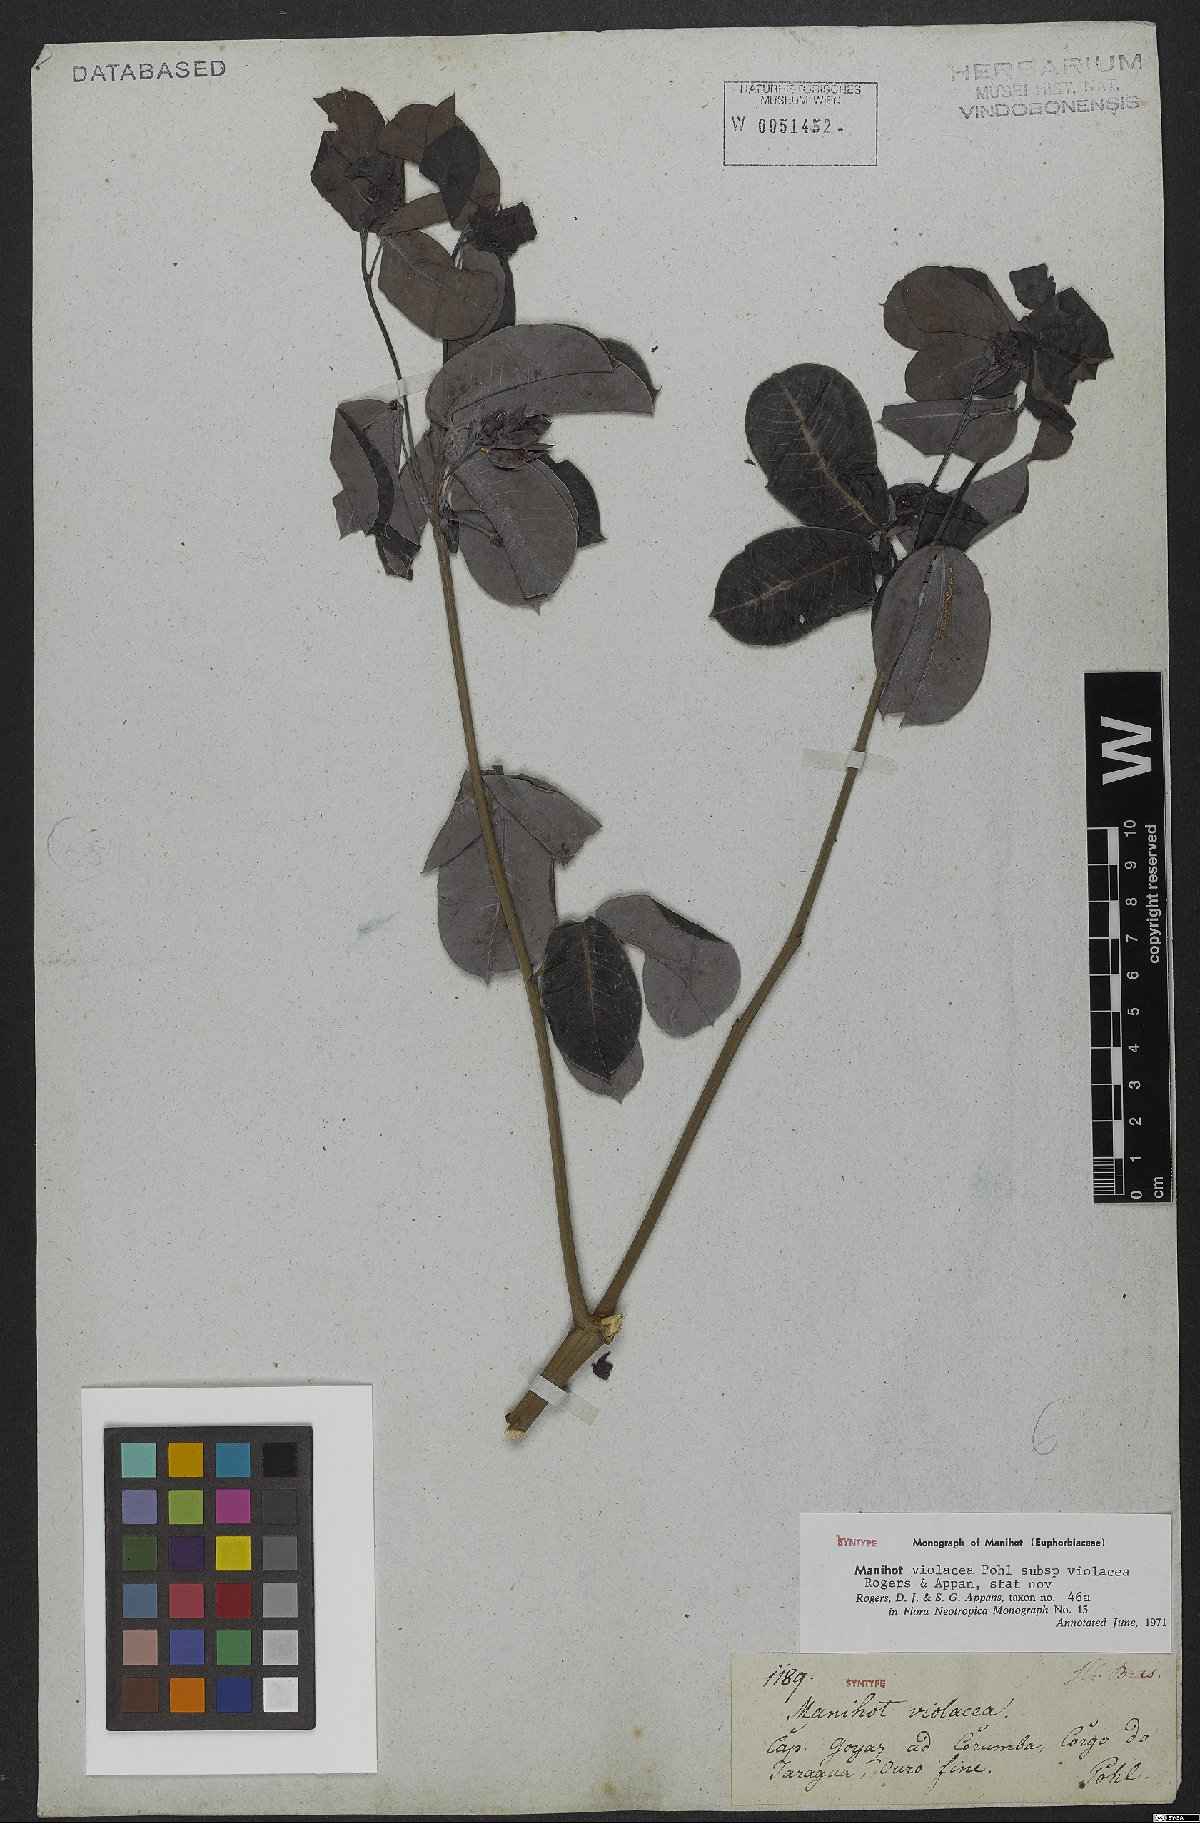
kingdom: Plantae
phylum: Tracheophyta
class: Magnoliopsida
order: Malpighiales
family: Euphorbiaceae
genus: Manihot
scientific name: Manihot violacea
